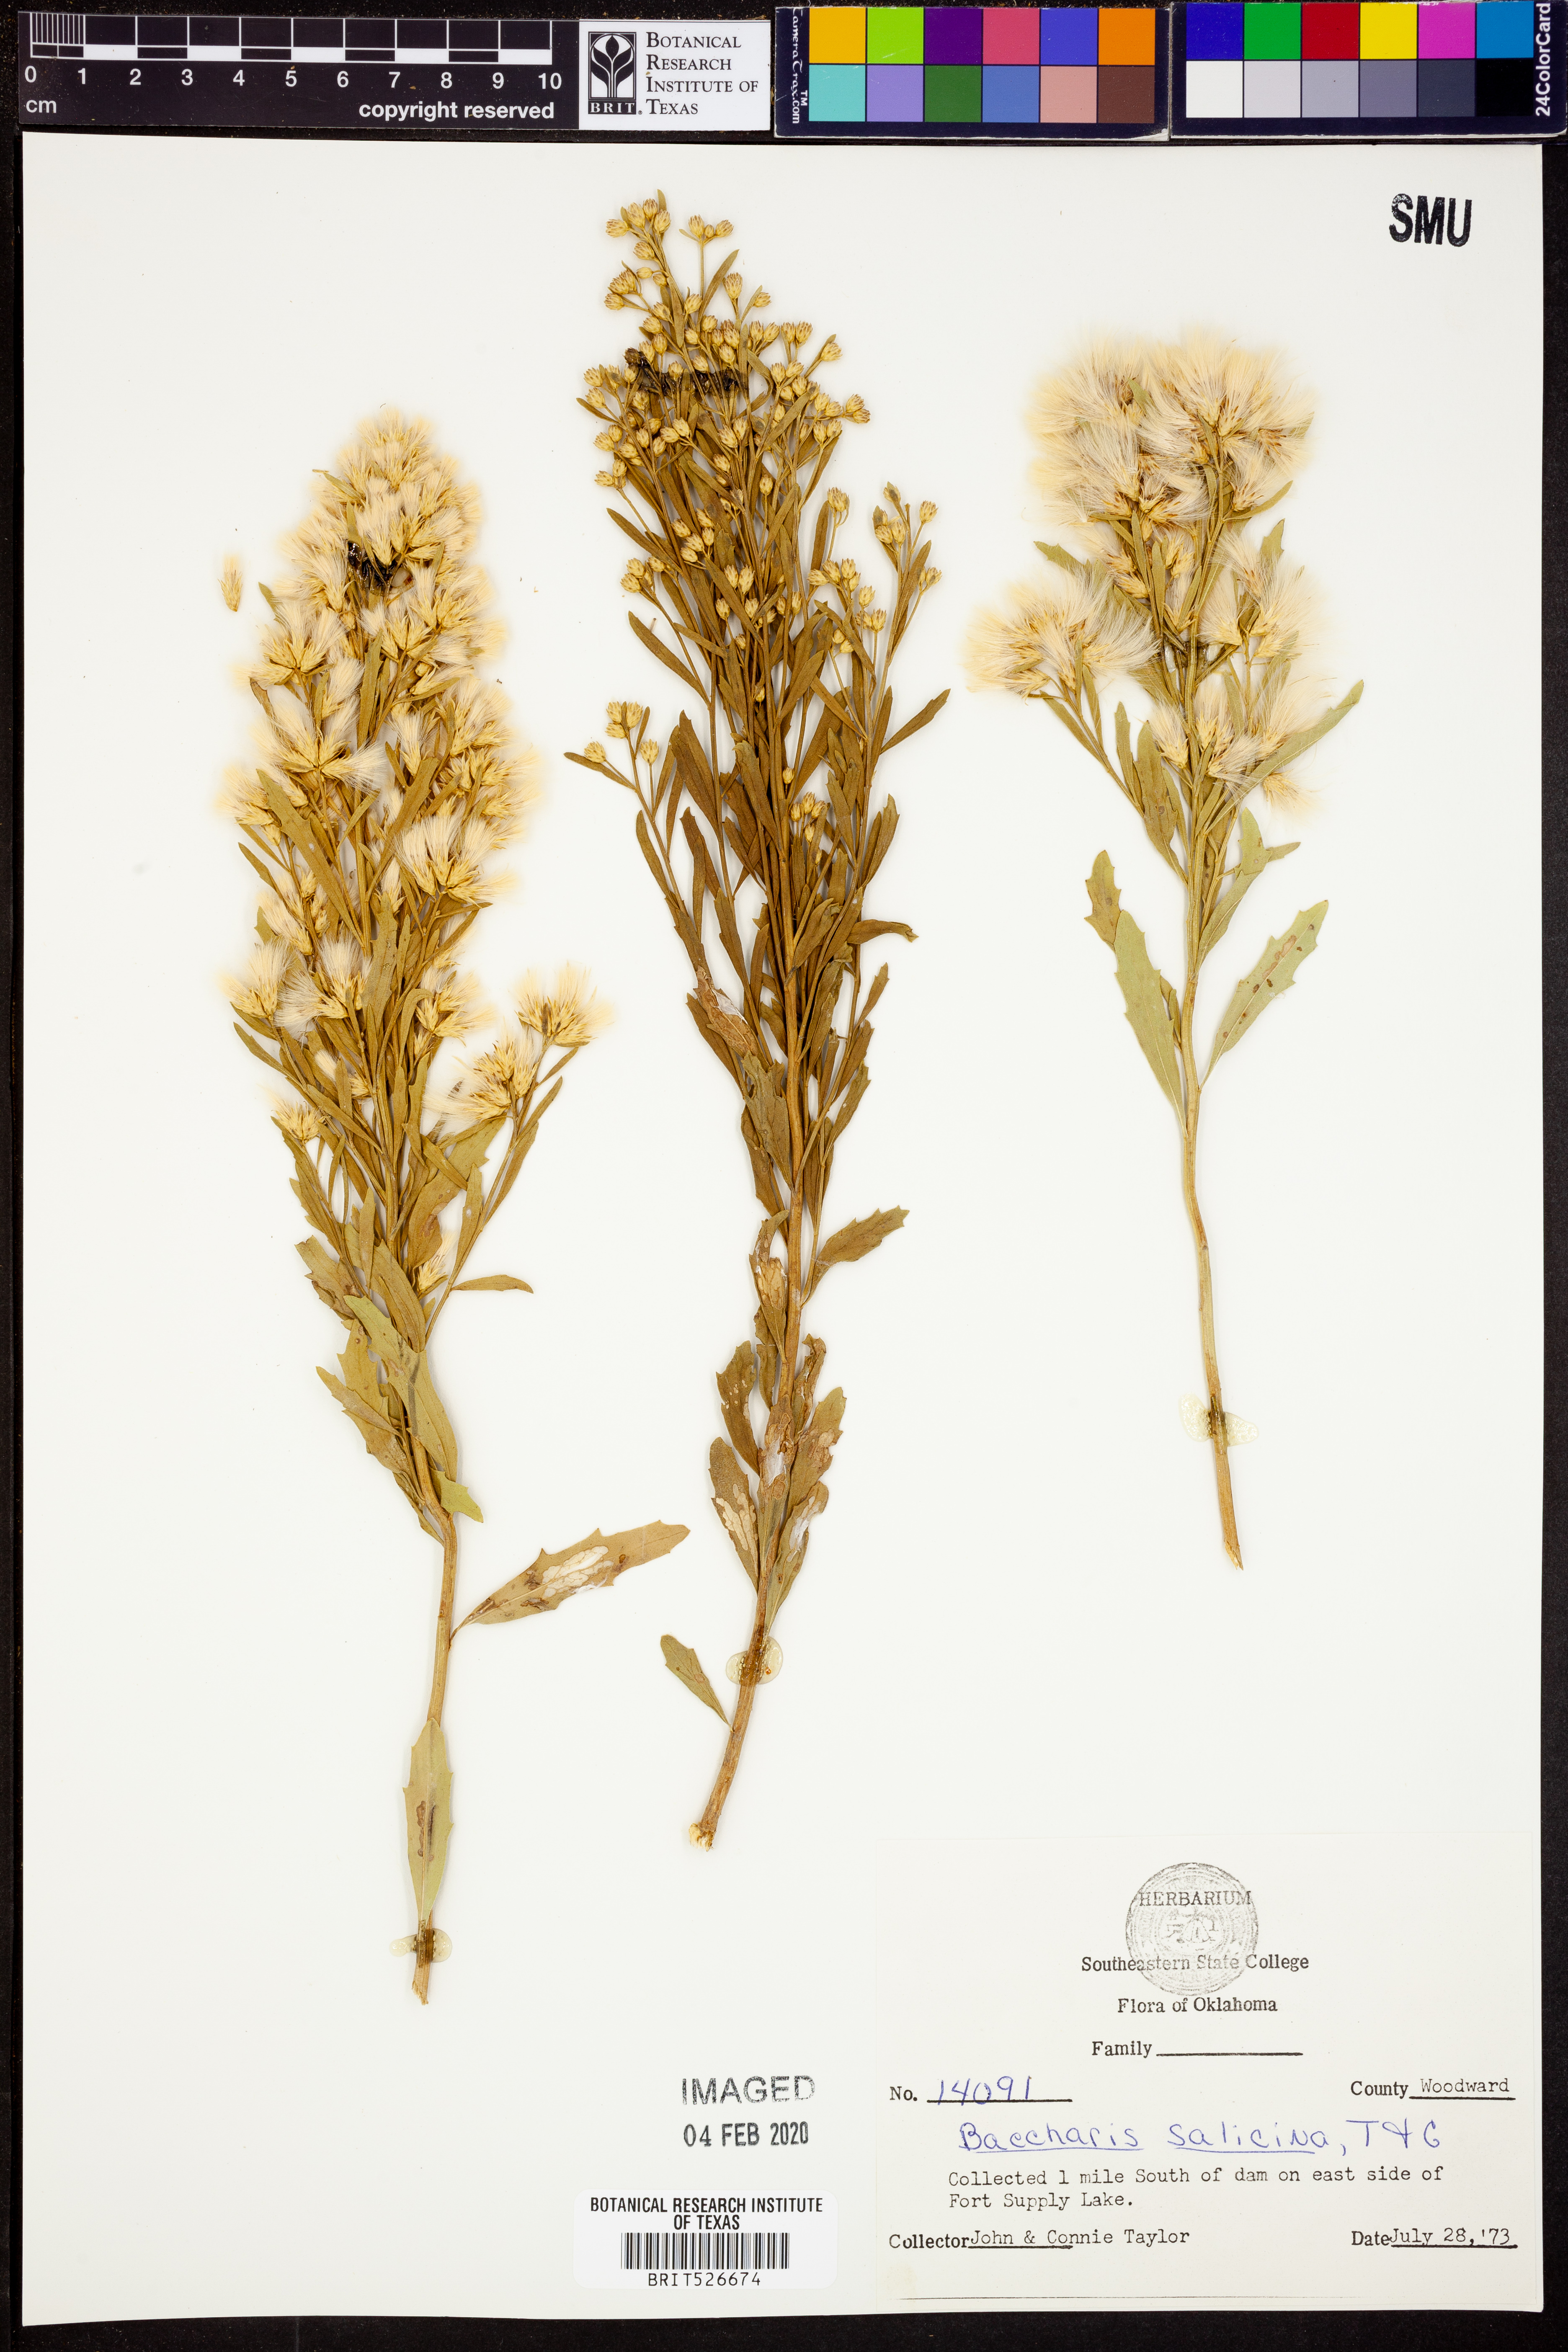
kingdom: Plantae
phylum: Tracheophyta
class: Magnoliopsida
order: Asterales
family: Asteraceae
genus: Baccharis
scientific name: Baccharis salicina
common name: Willow baccharis
